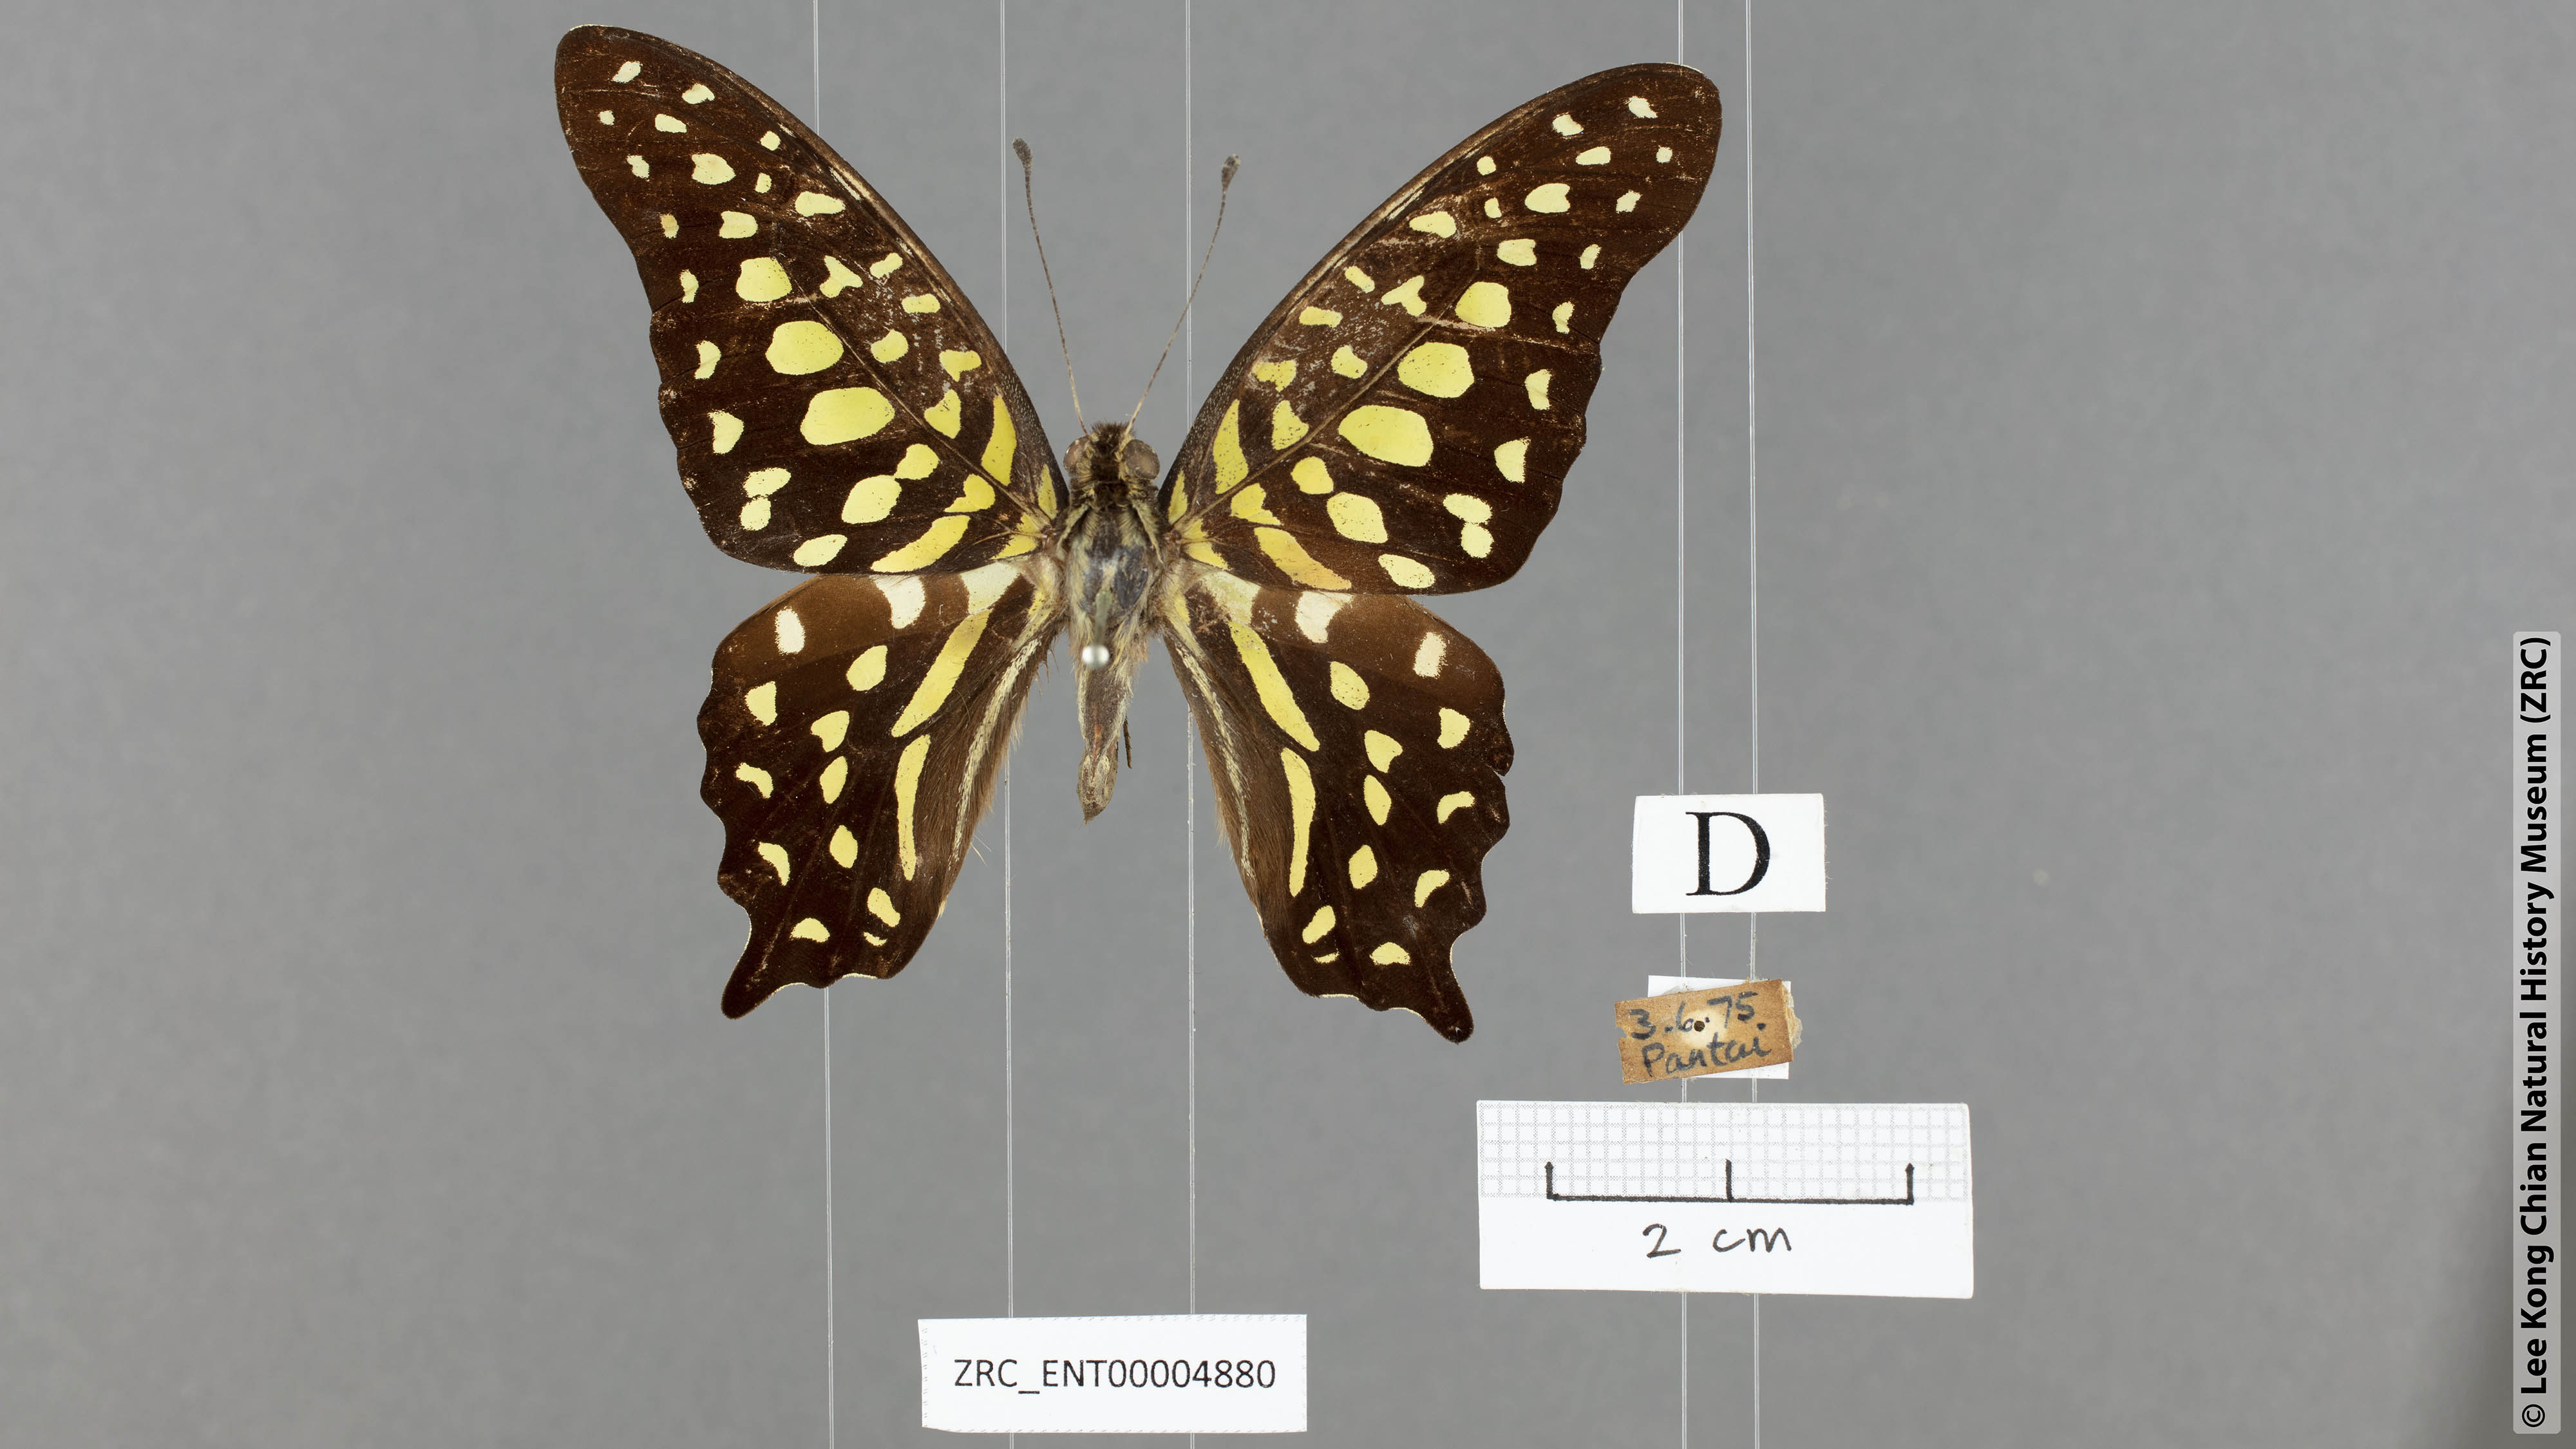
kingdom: Animalia
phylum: Arthropoda
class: Insecta
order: Lepidoptera
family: Papilionidae
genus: Graphium
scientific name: Graphium agamemnon
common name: Tailed jay
